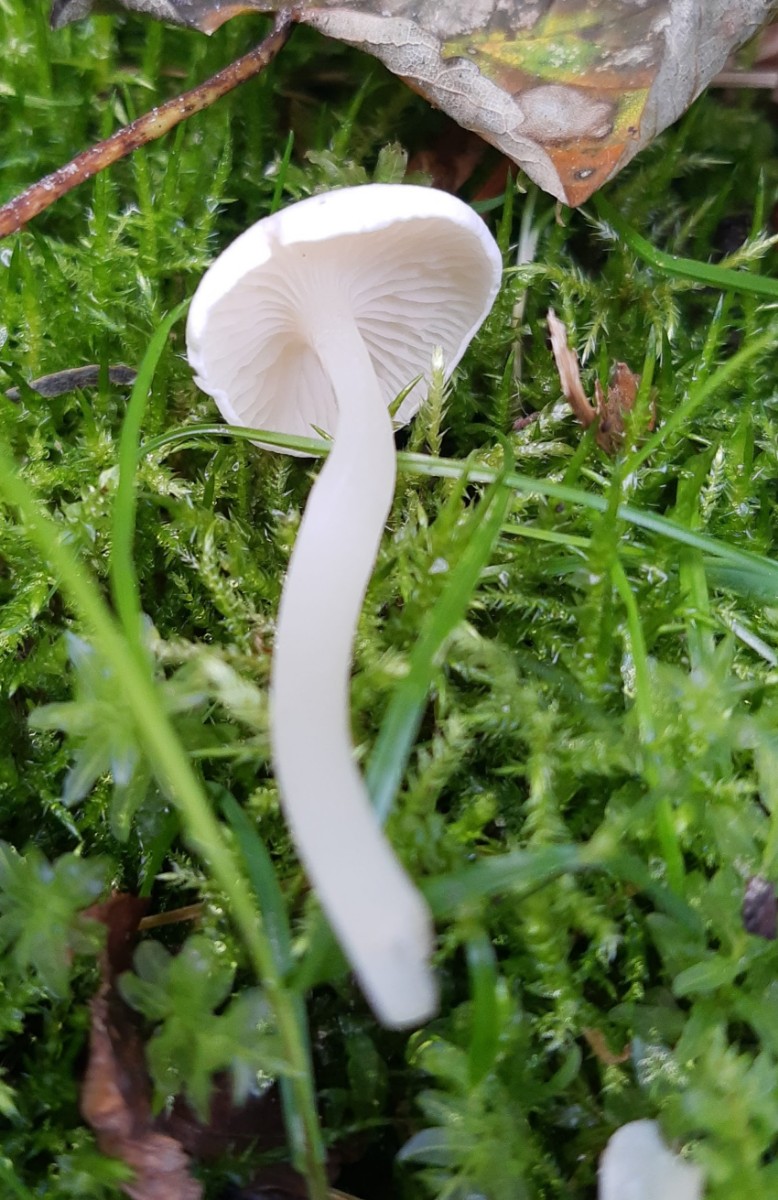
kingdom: Fungi
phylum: Basidiomycota
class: Agaricomycetes
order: Agaricales
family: Hygrophoraceae
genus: Cuphophyllus
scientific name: Cuphophyllus virgineus
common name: snehvid vokshat
